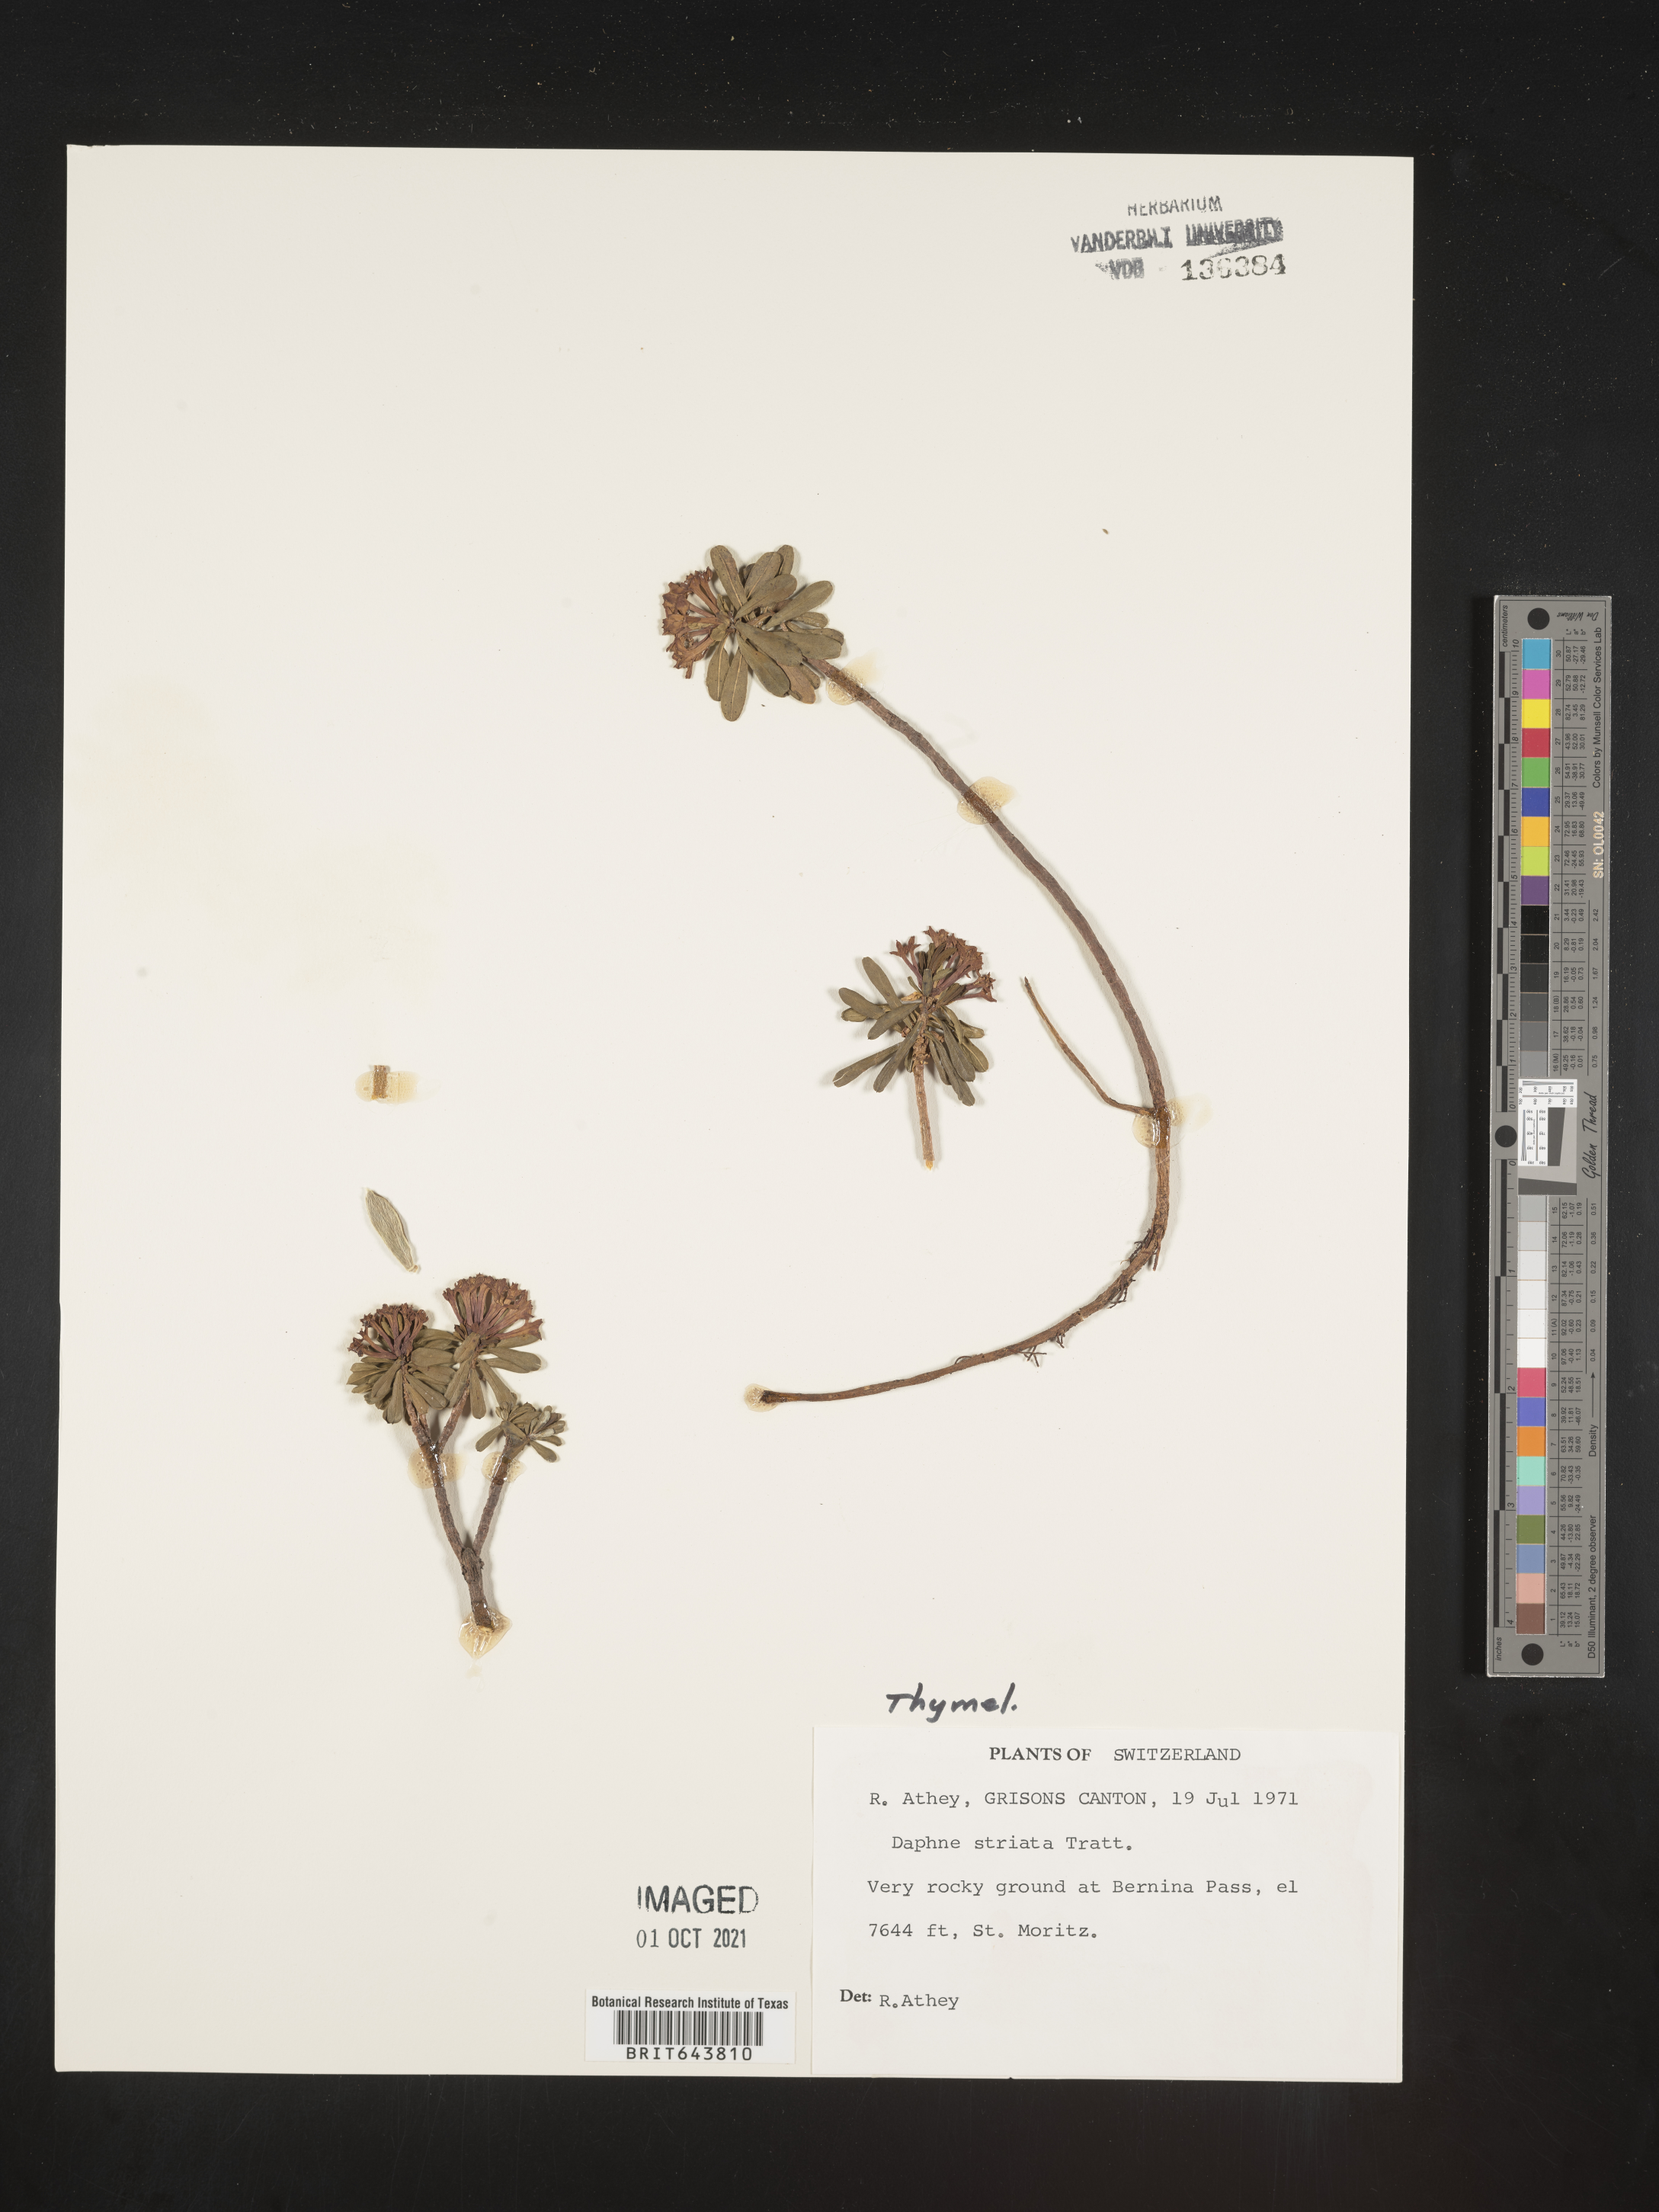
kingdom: Plantae
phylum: Tracheophyta
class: Magnoliopsida
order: Malvales
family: Thymelaeaceae
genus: Daphne
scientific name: Daphne
